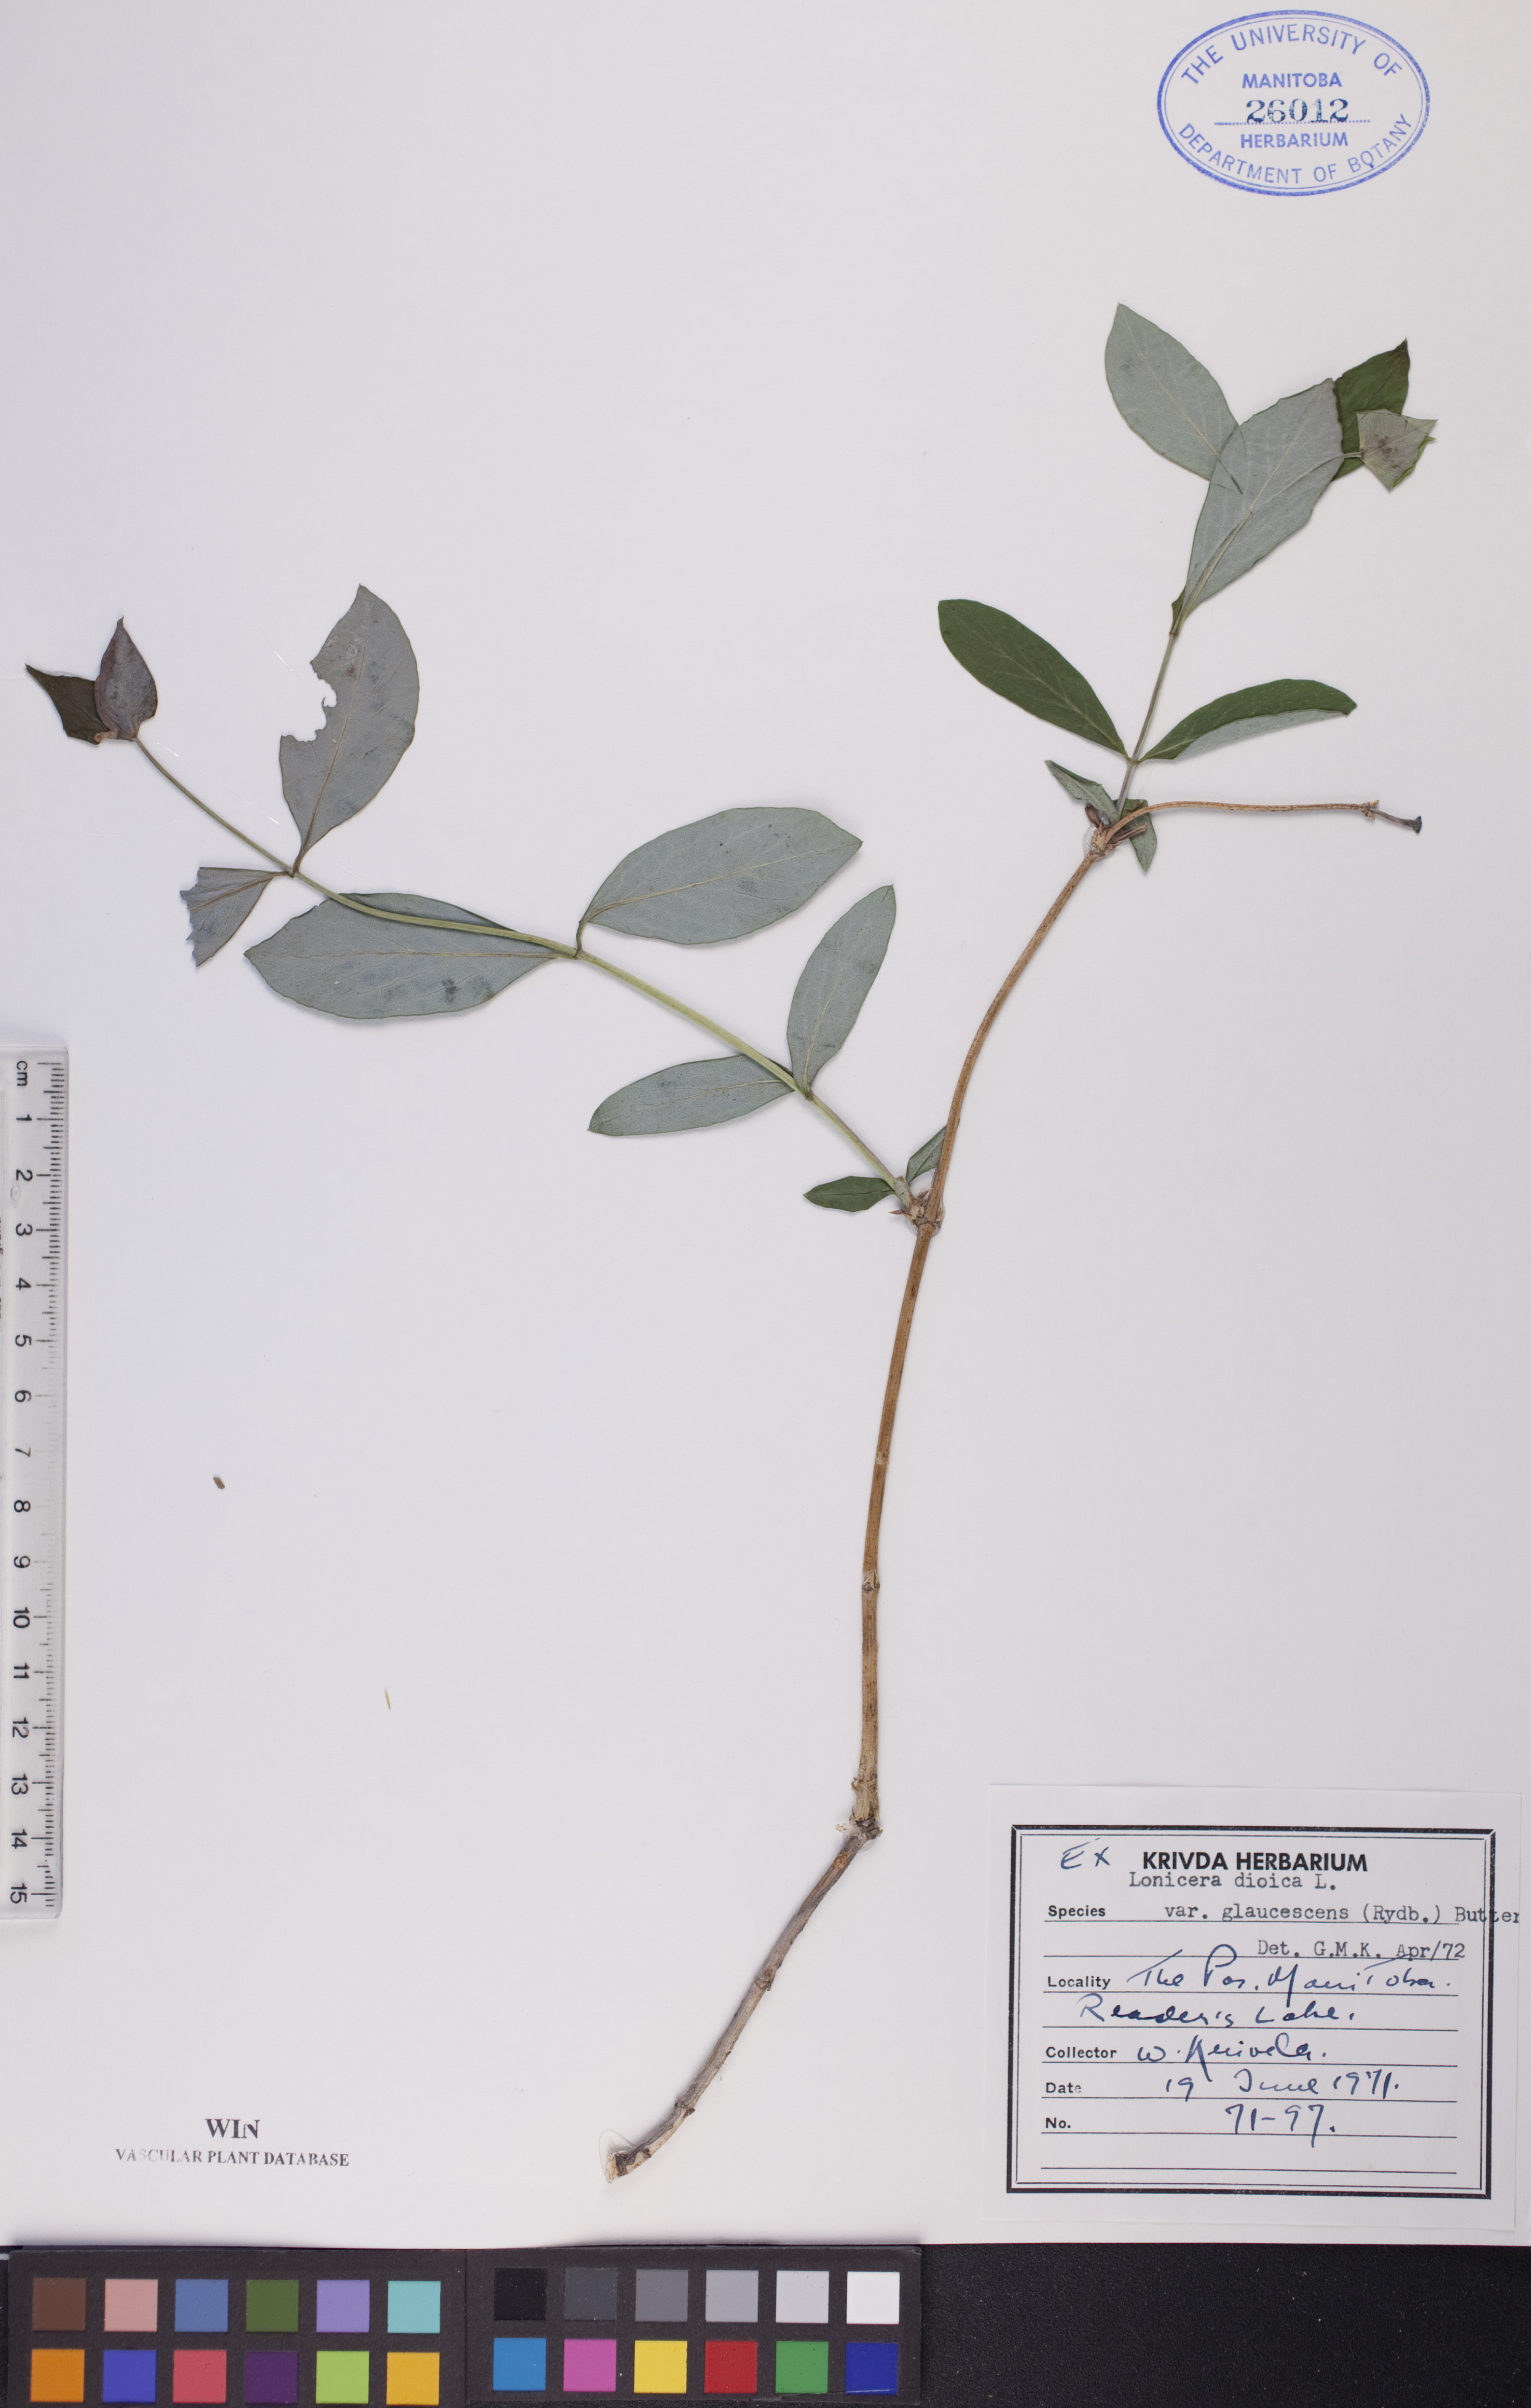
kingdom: Plantae
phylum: Tracheophyta
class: Magnoliopsida
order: Dipsacales
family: Caprifoliaceae
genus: Lonicera
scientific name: Lonicera dioica
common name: Limber honeysuckle
